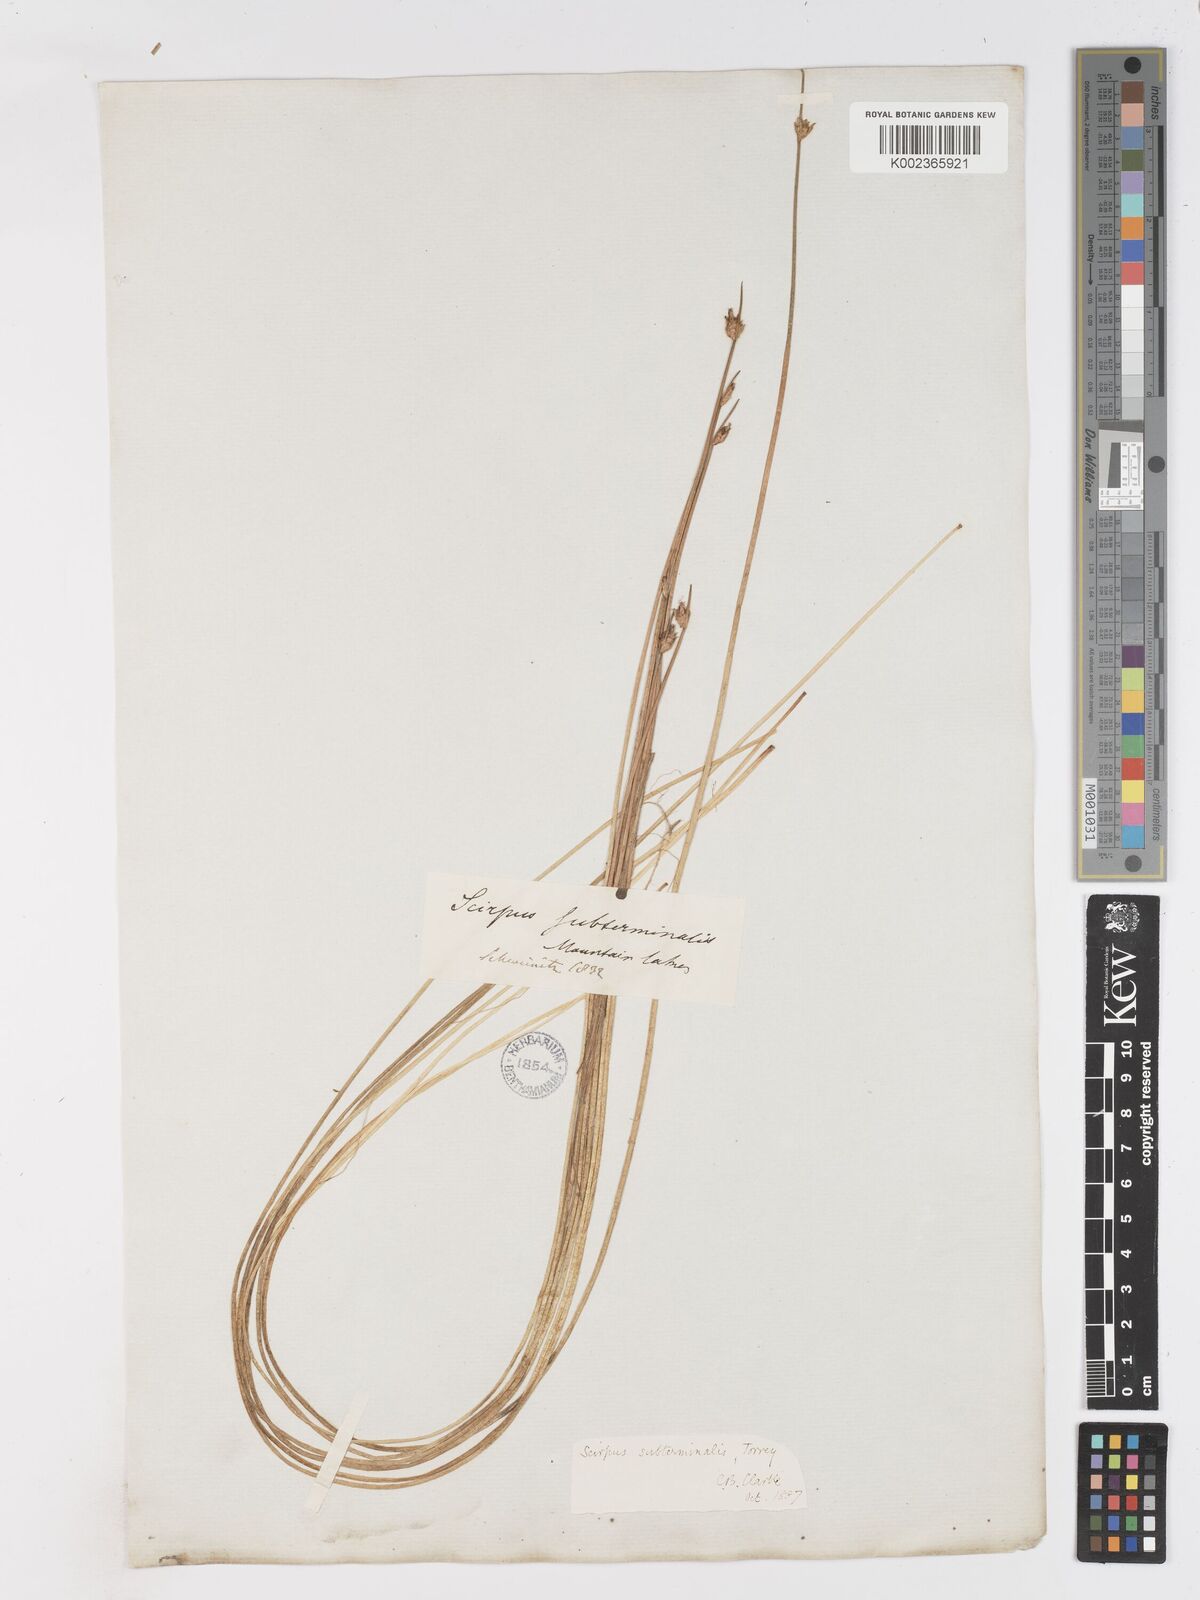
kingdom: Plantae
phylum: Tracheophyta
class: Liliopsida
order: Poales
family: Cyperaceae
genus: Schoenoplectus
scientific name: Schoenoplectus subterminalis
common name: Swaying bulrush
